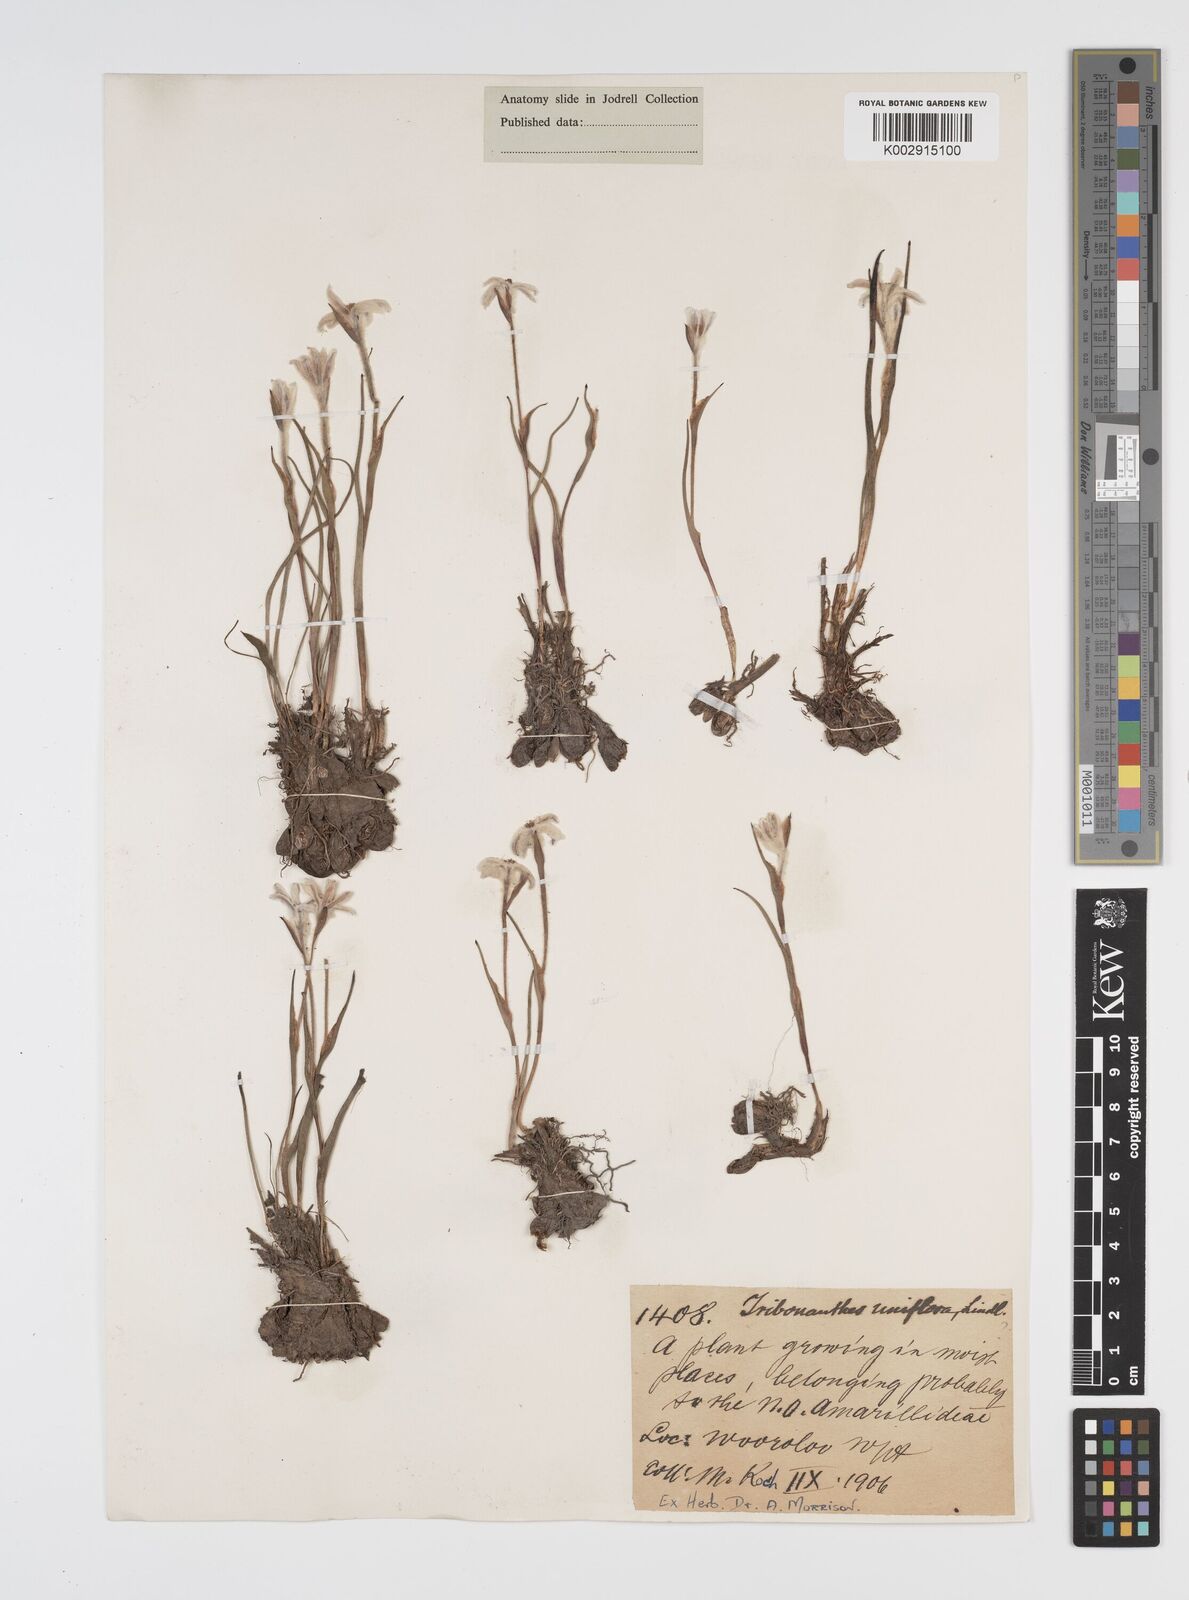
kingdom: Plantae
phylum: Tracheophyta
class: Liliopsida
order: Commelinales
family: Haemodoraceae
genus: Tribonanthes
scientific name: Tribonanthes uniflora
